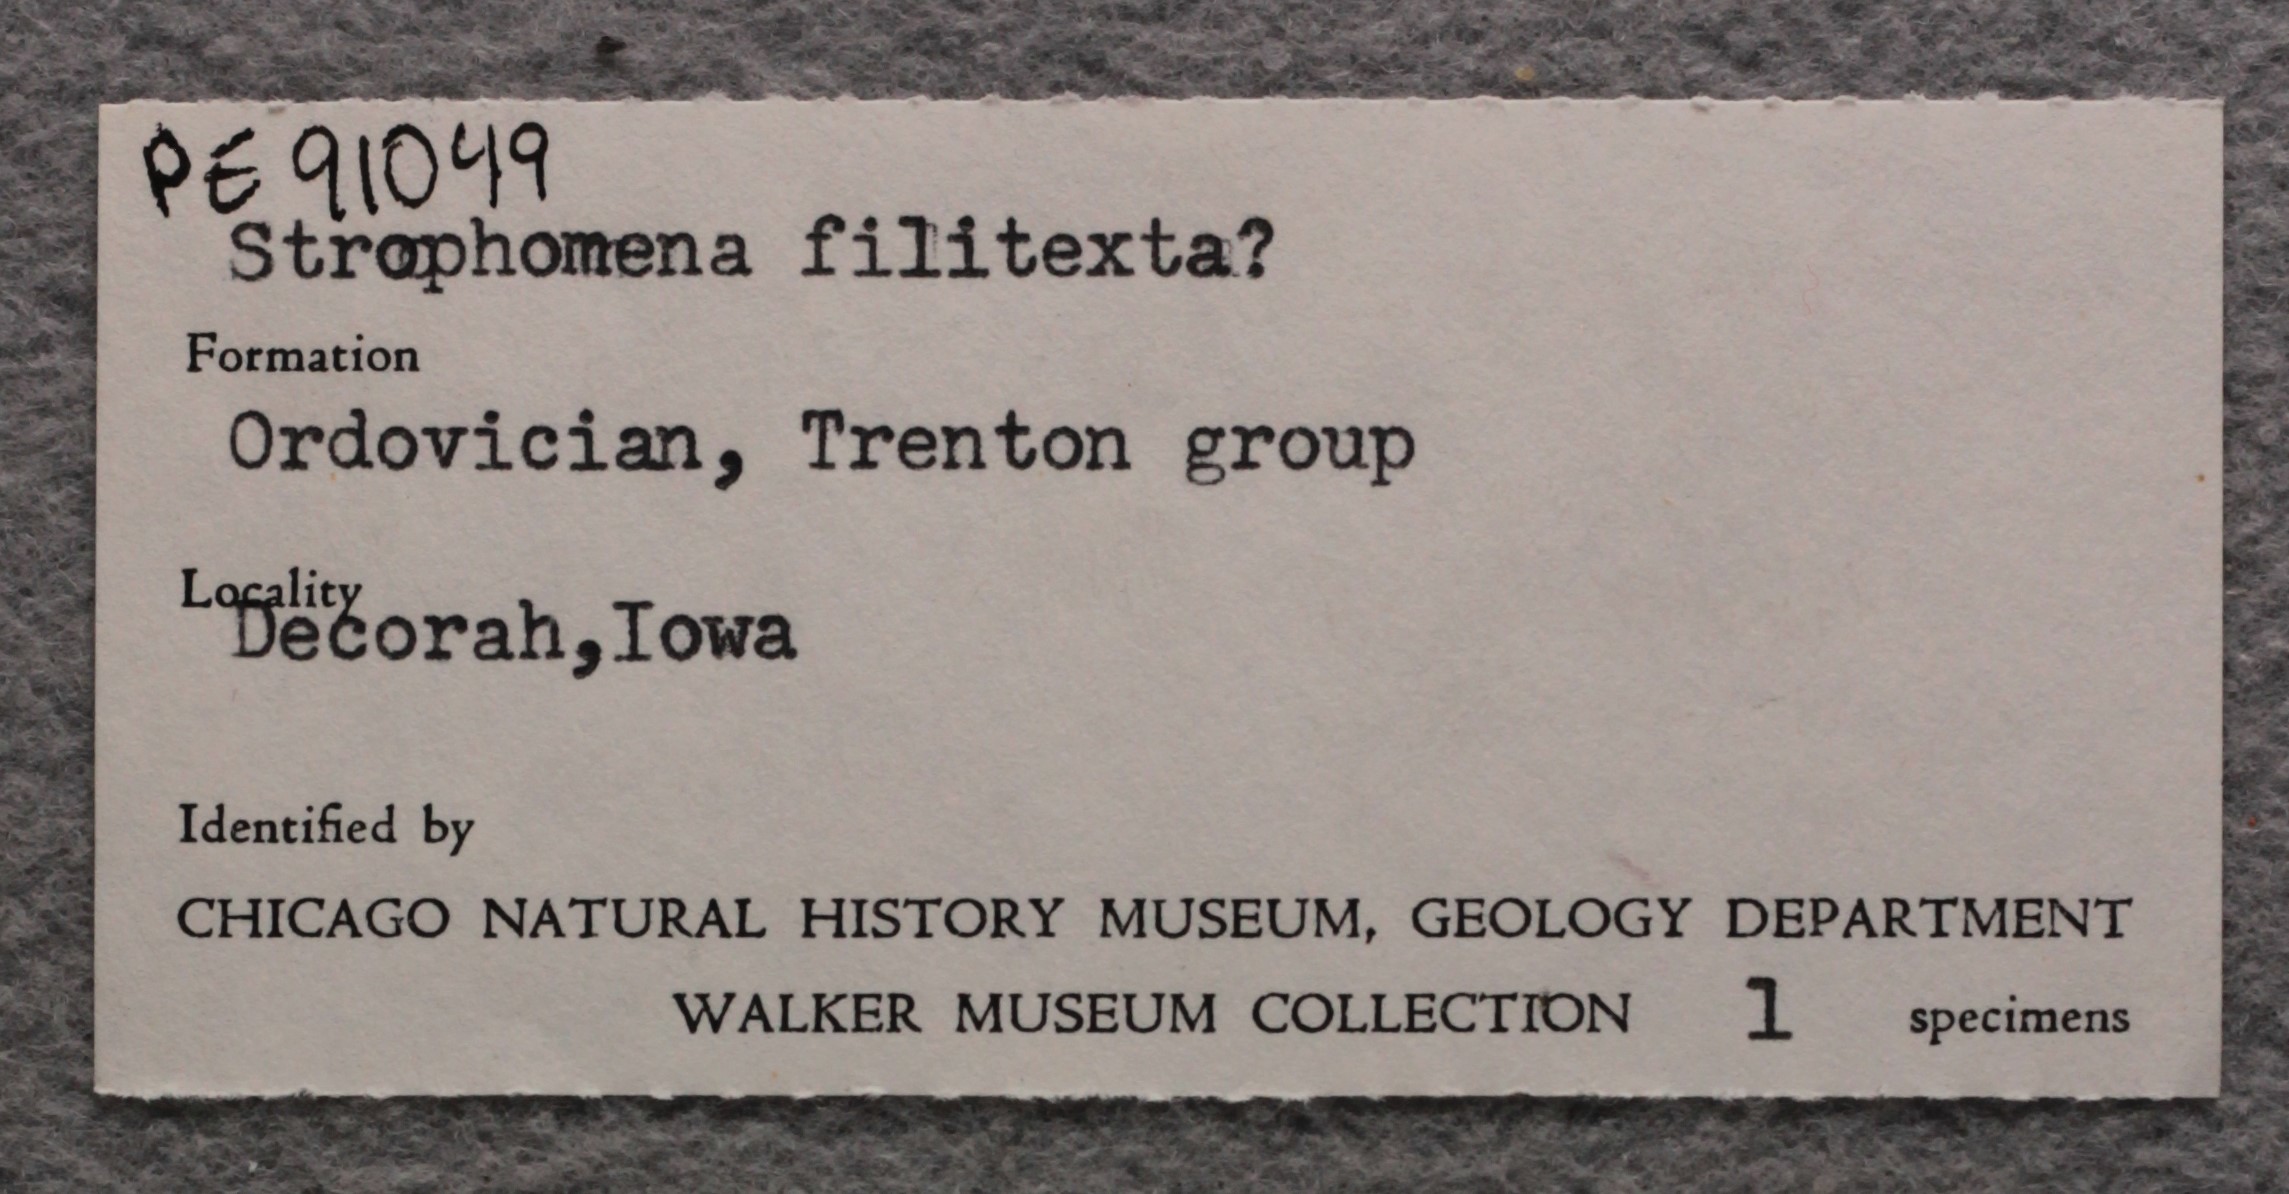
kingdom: Animalia
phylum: Brachiopoda
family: Strophomenidae
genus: Strophomena
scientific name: Strophomena Leptaena filitexta
